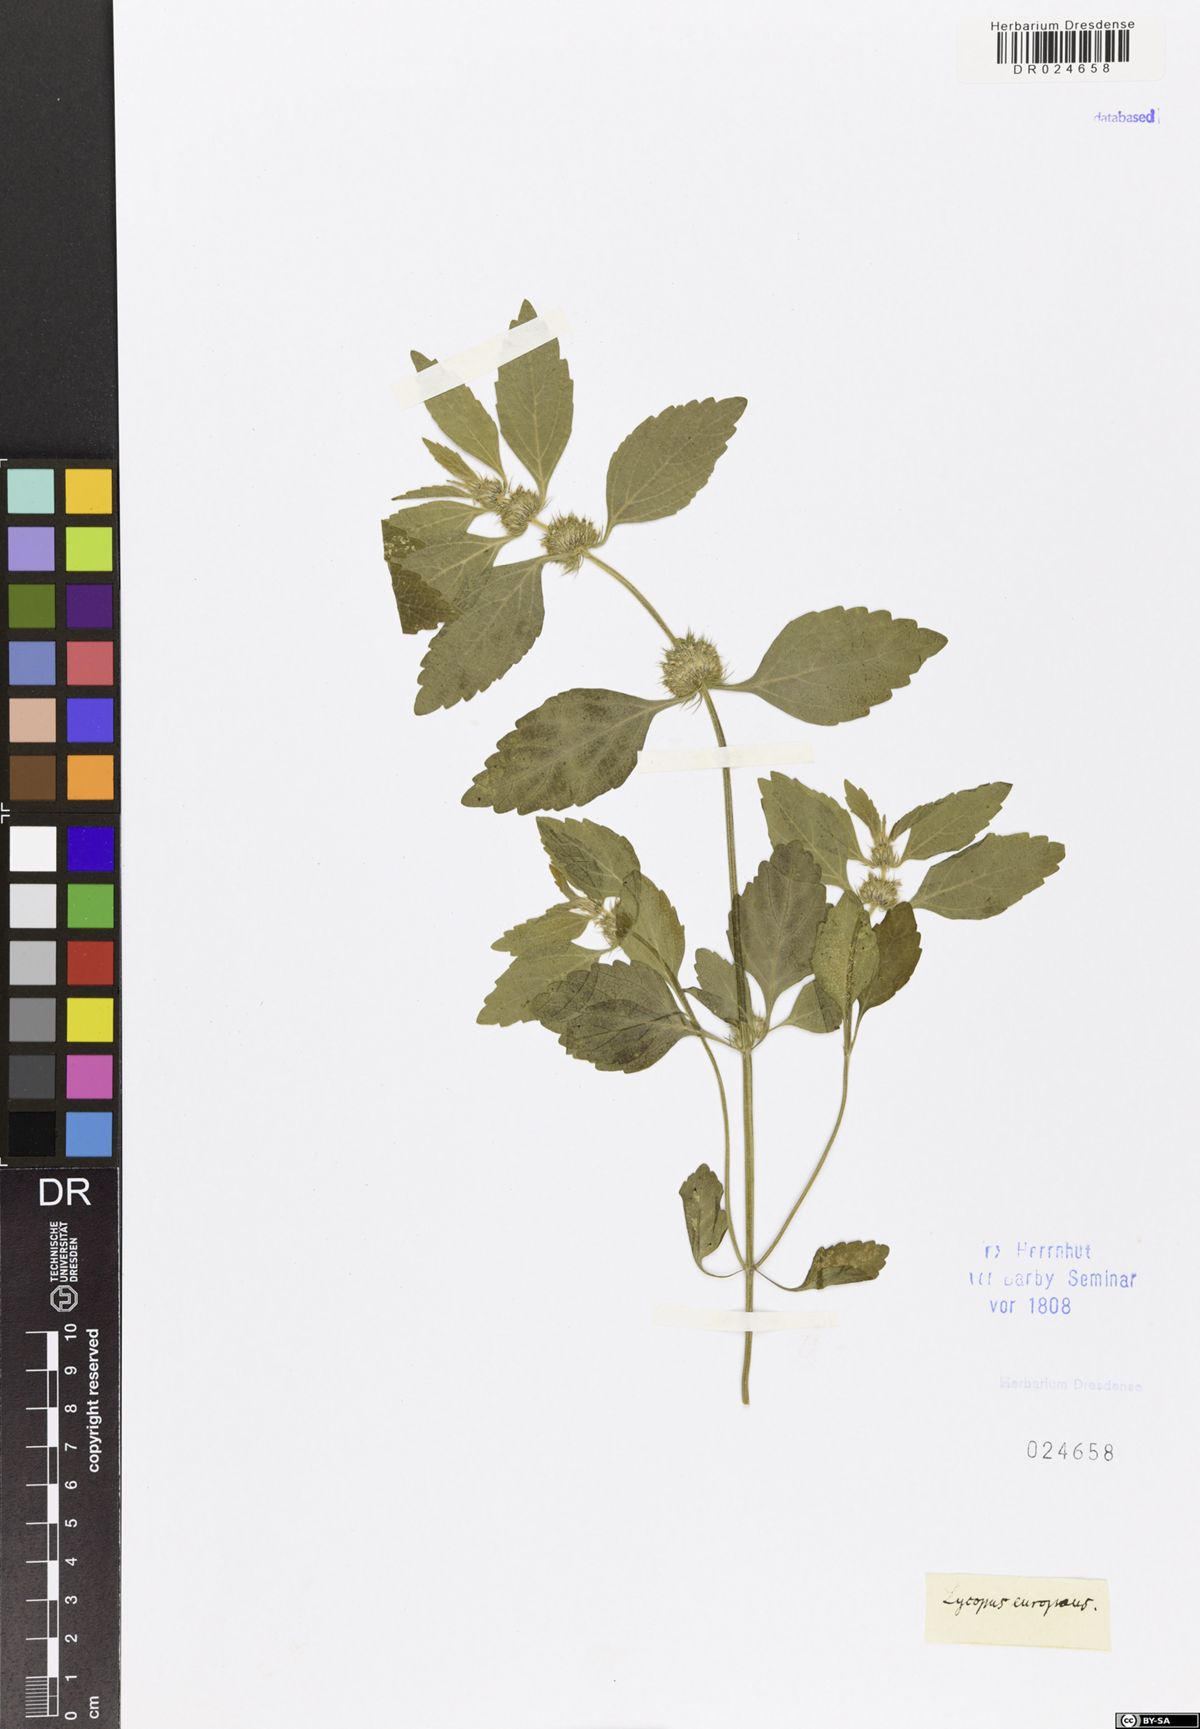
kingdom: Plantae
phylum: Tracheophyta
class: Magnoliopsida
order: Lamiales
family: Lamiaceae
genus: Lycopus
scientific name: Lycopus europaeus
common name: European bugleweed
